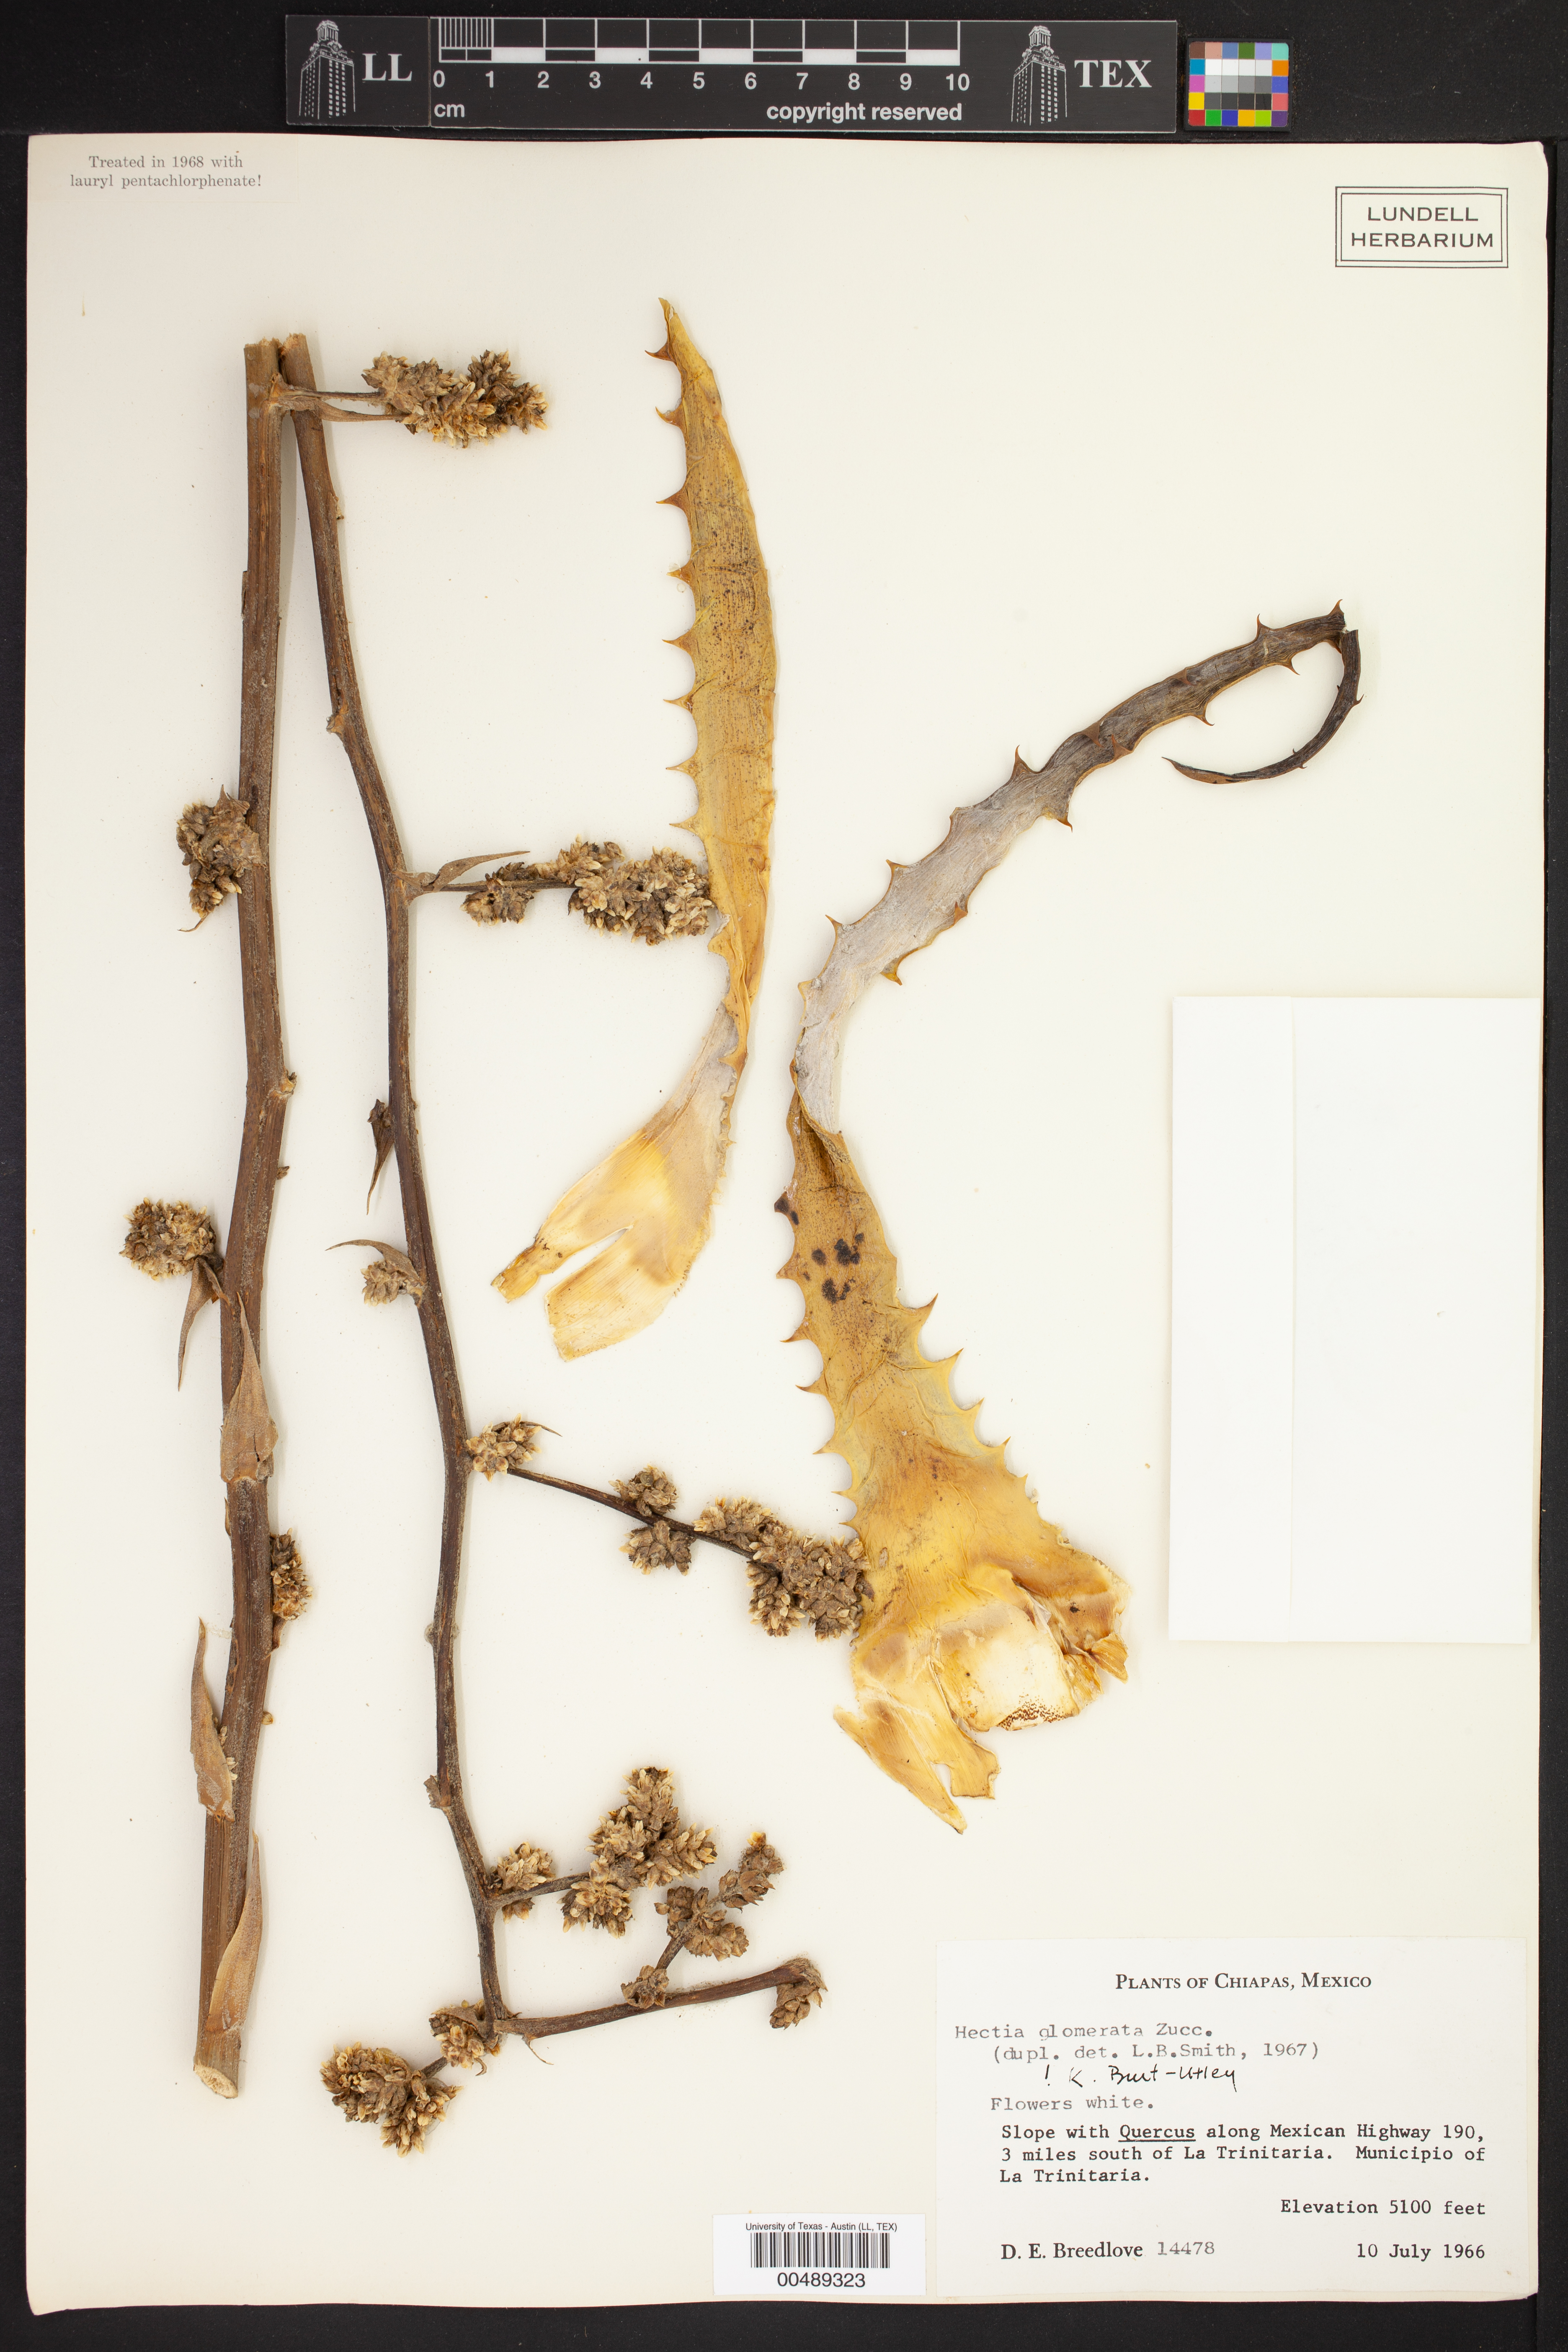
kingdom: Plantae
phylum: Tracheophyta
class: Liliopsida
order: Poales
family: Bromeliaceae
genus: Hechtia
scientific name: Hechtia glomerata
